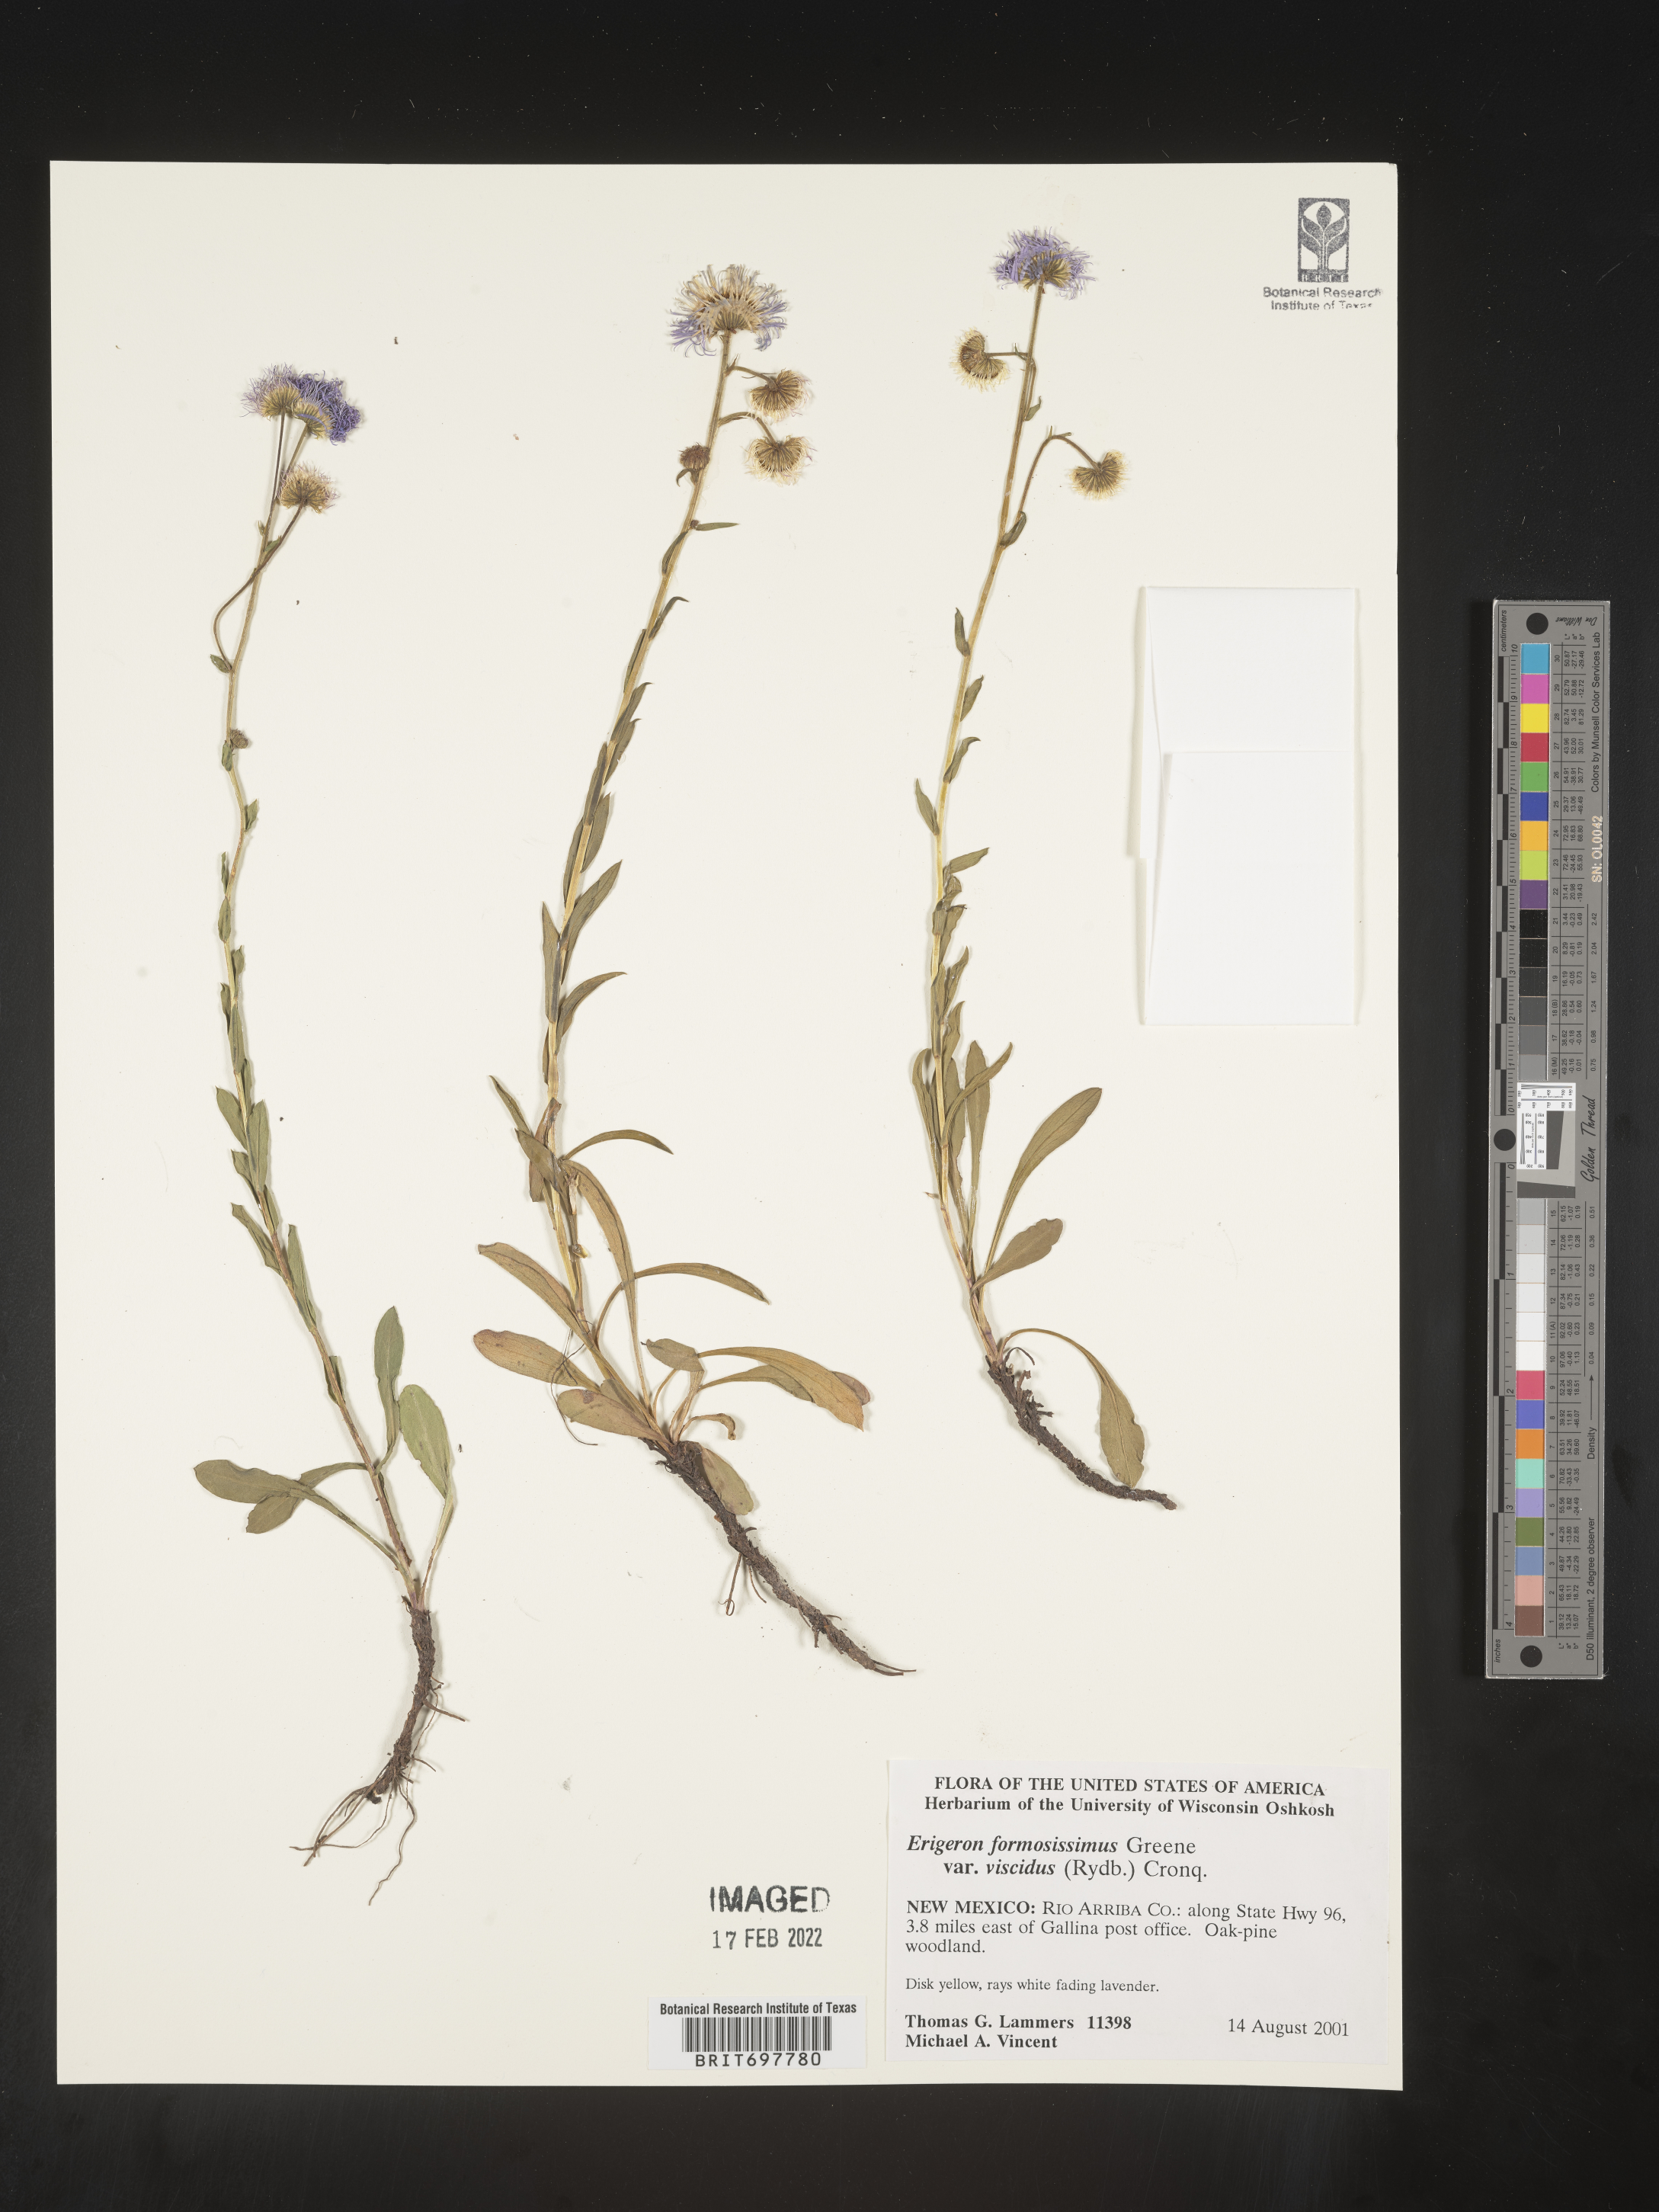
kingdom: Plantae
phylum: Tracheophyta
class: Magnoliopsida
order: Asterales
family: Asteraceae
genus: Erigeron
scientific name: Erigeron formosissimus
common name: Beautiful fleabane
